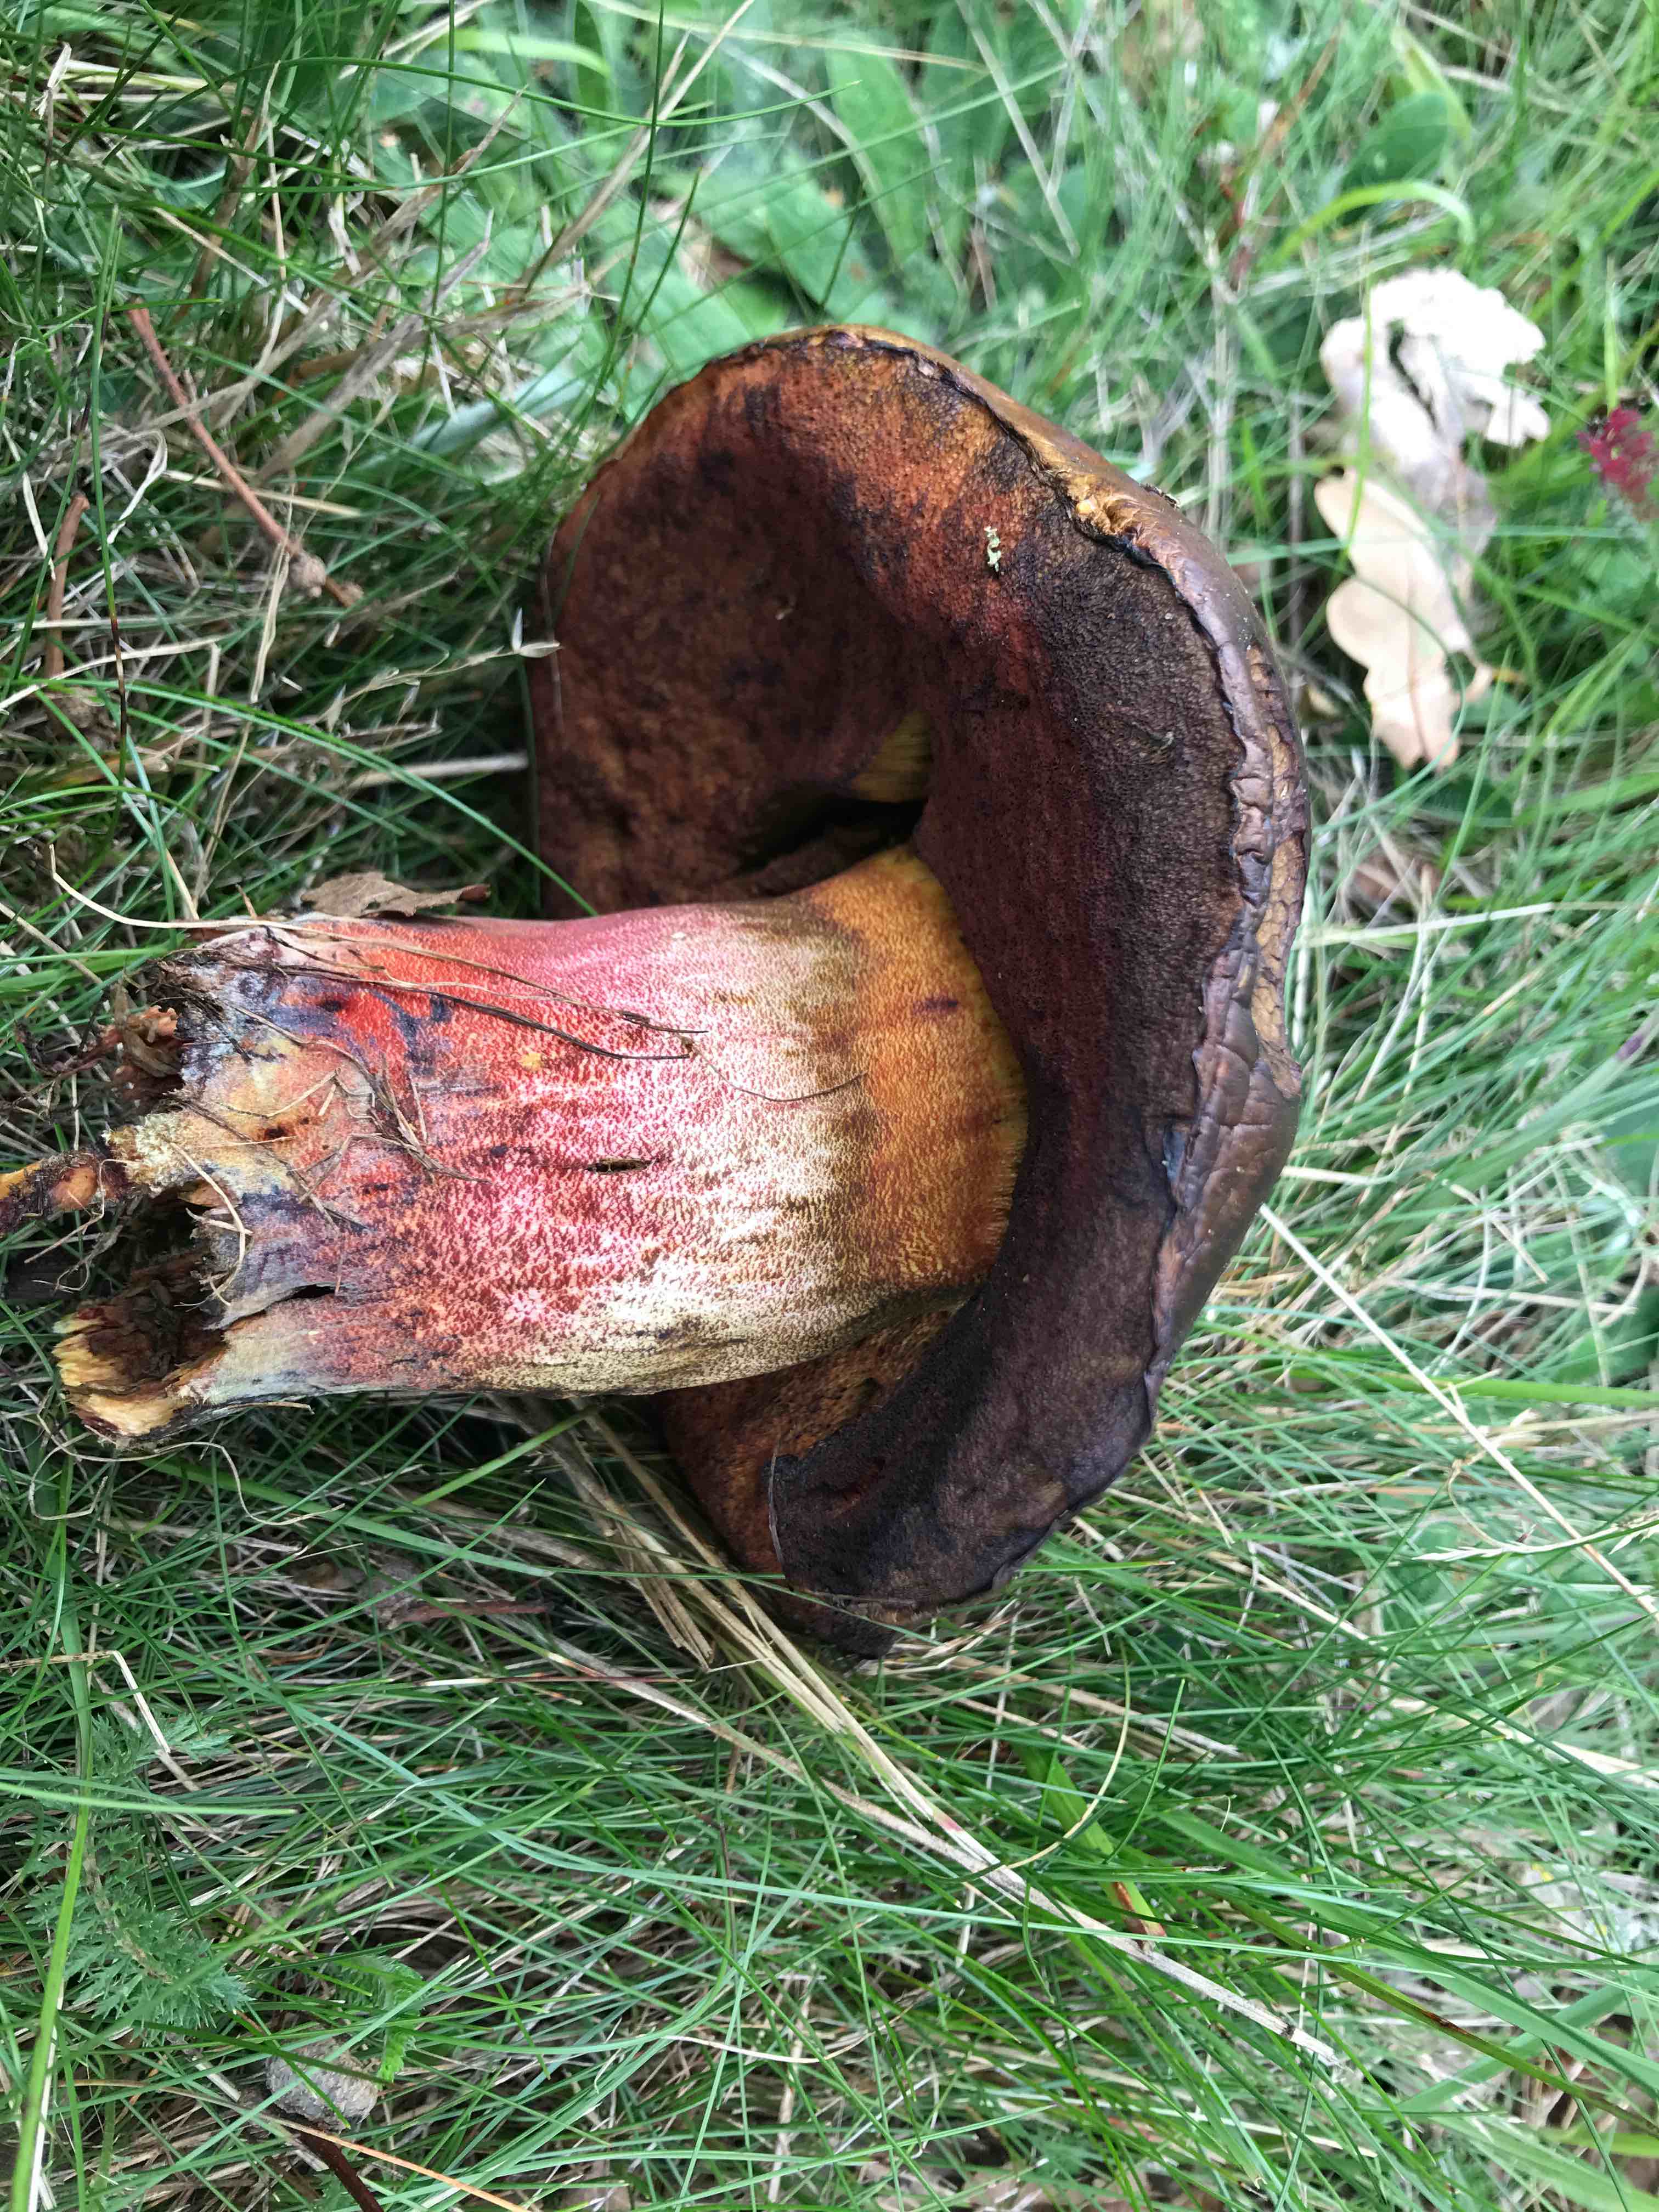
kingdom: Fungi
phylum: Basidiomycota
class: Agaricomycetes
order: Boletales
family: Boletaceae
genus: Neoboletus
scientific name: Neoboletus erythropus
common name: punktstokket indigorørhat
